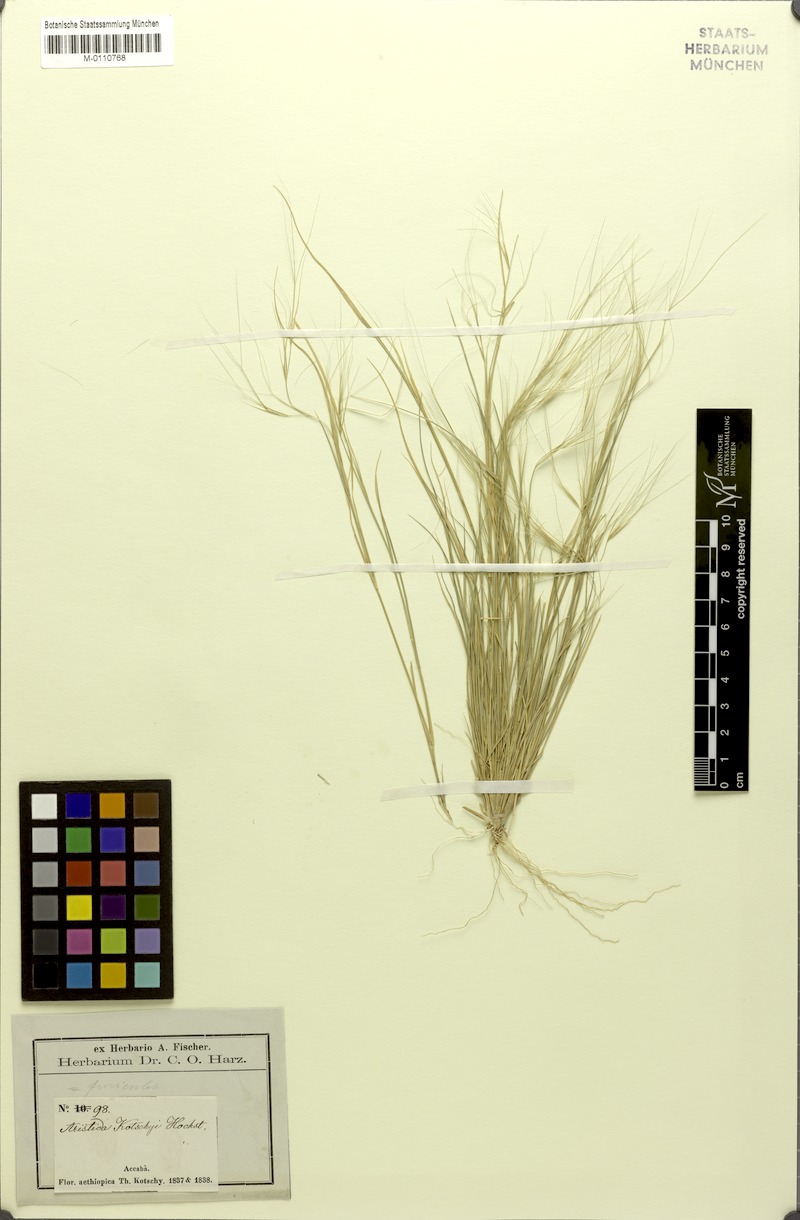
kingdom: Plantae
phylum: Tracheophyta
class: Liliopsida
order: Poales
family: Poaceae
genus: Aristida
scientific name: Aristida funiculata
